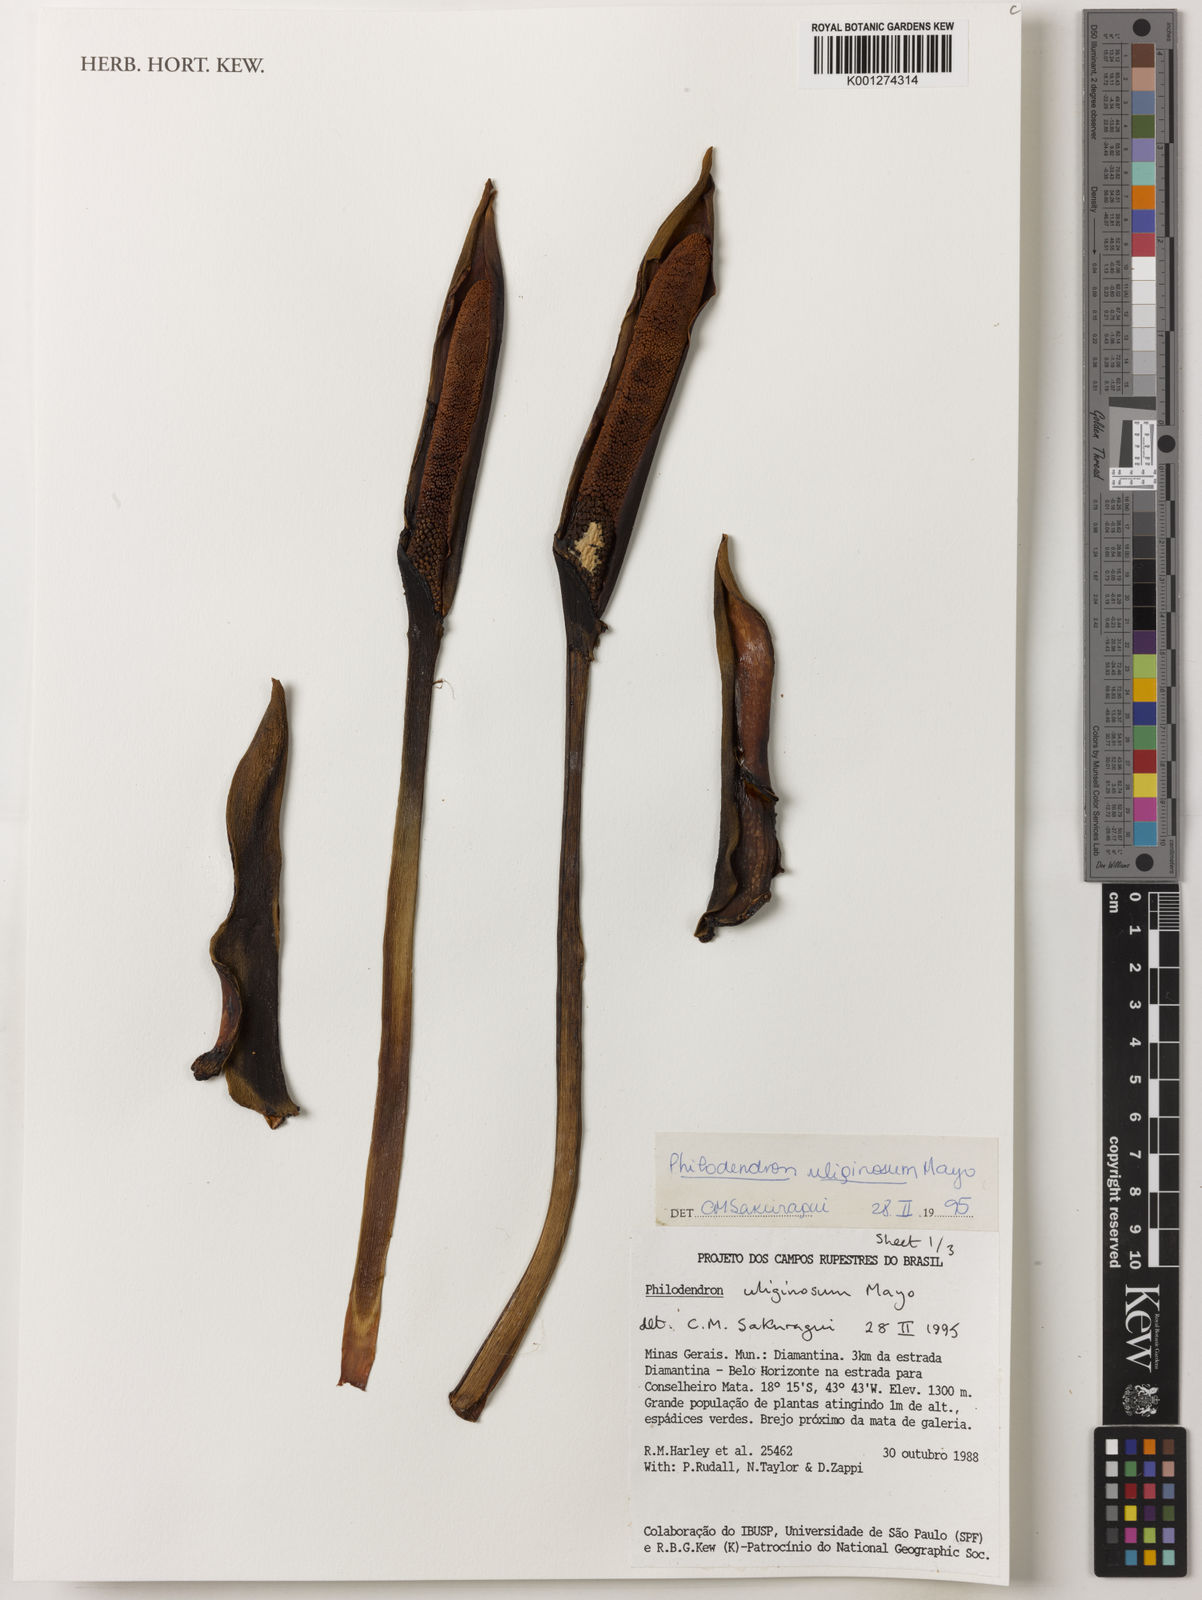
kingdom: Plantae
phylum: Tracheophyta
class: Liliopsida
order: Alismatales
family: Araceae
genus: Thaumatophyllum
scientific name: Thaumatophyllum uliginosum
